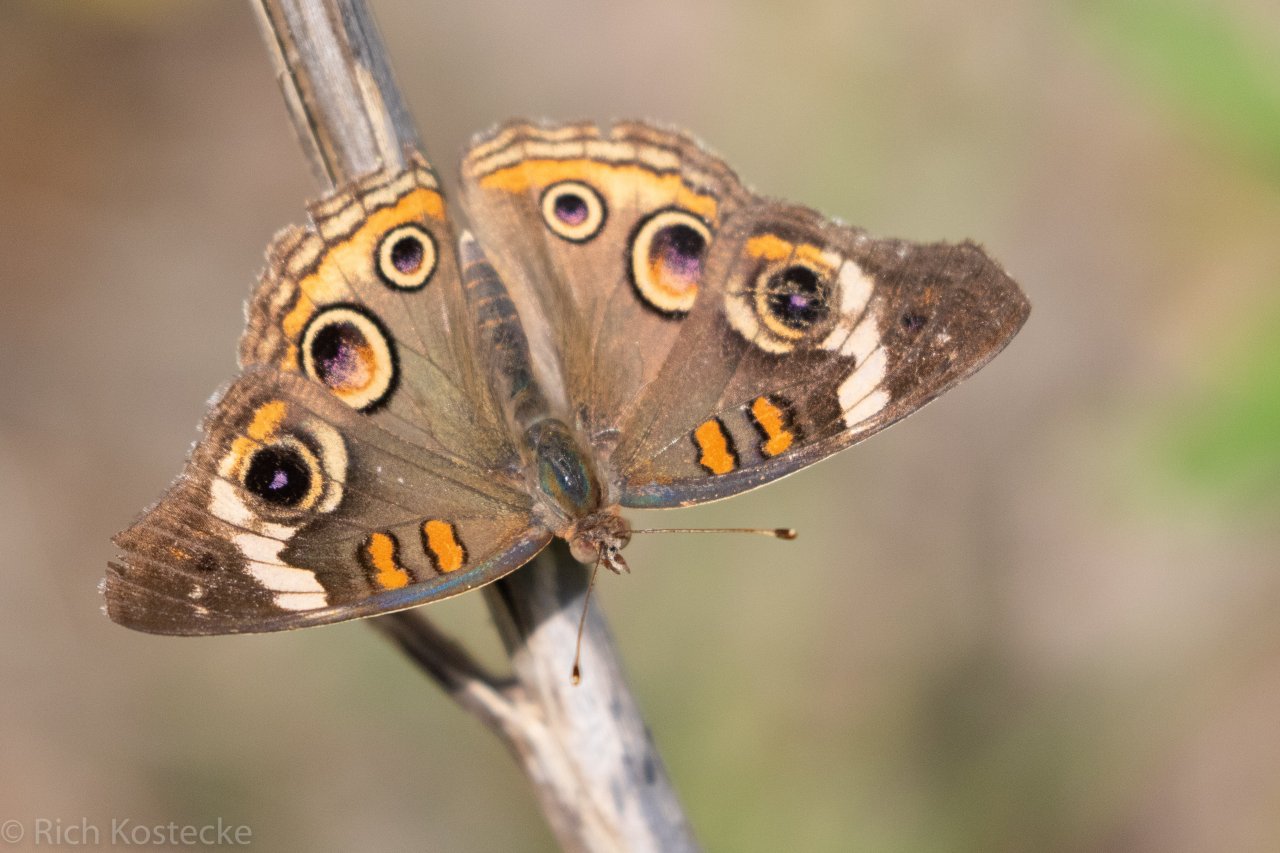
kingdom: Animalia
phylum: Arthropoda
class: Insecta
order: Lepidoptera
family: Nymphalidae
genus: Junonia
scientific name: Junonia coenia
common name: Common Buckeye
